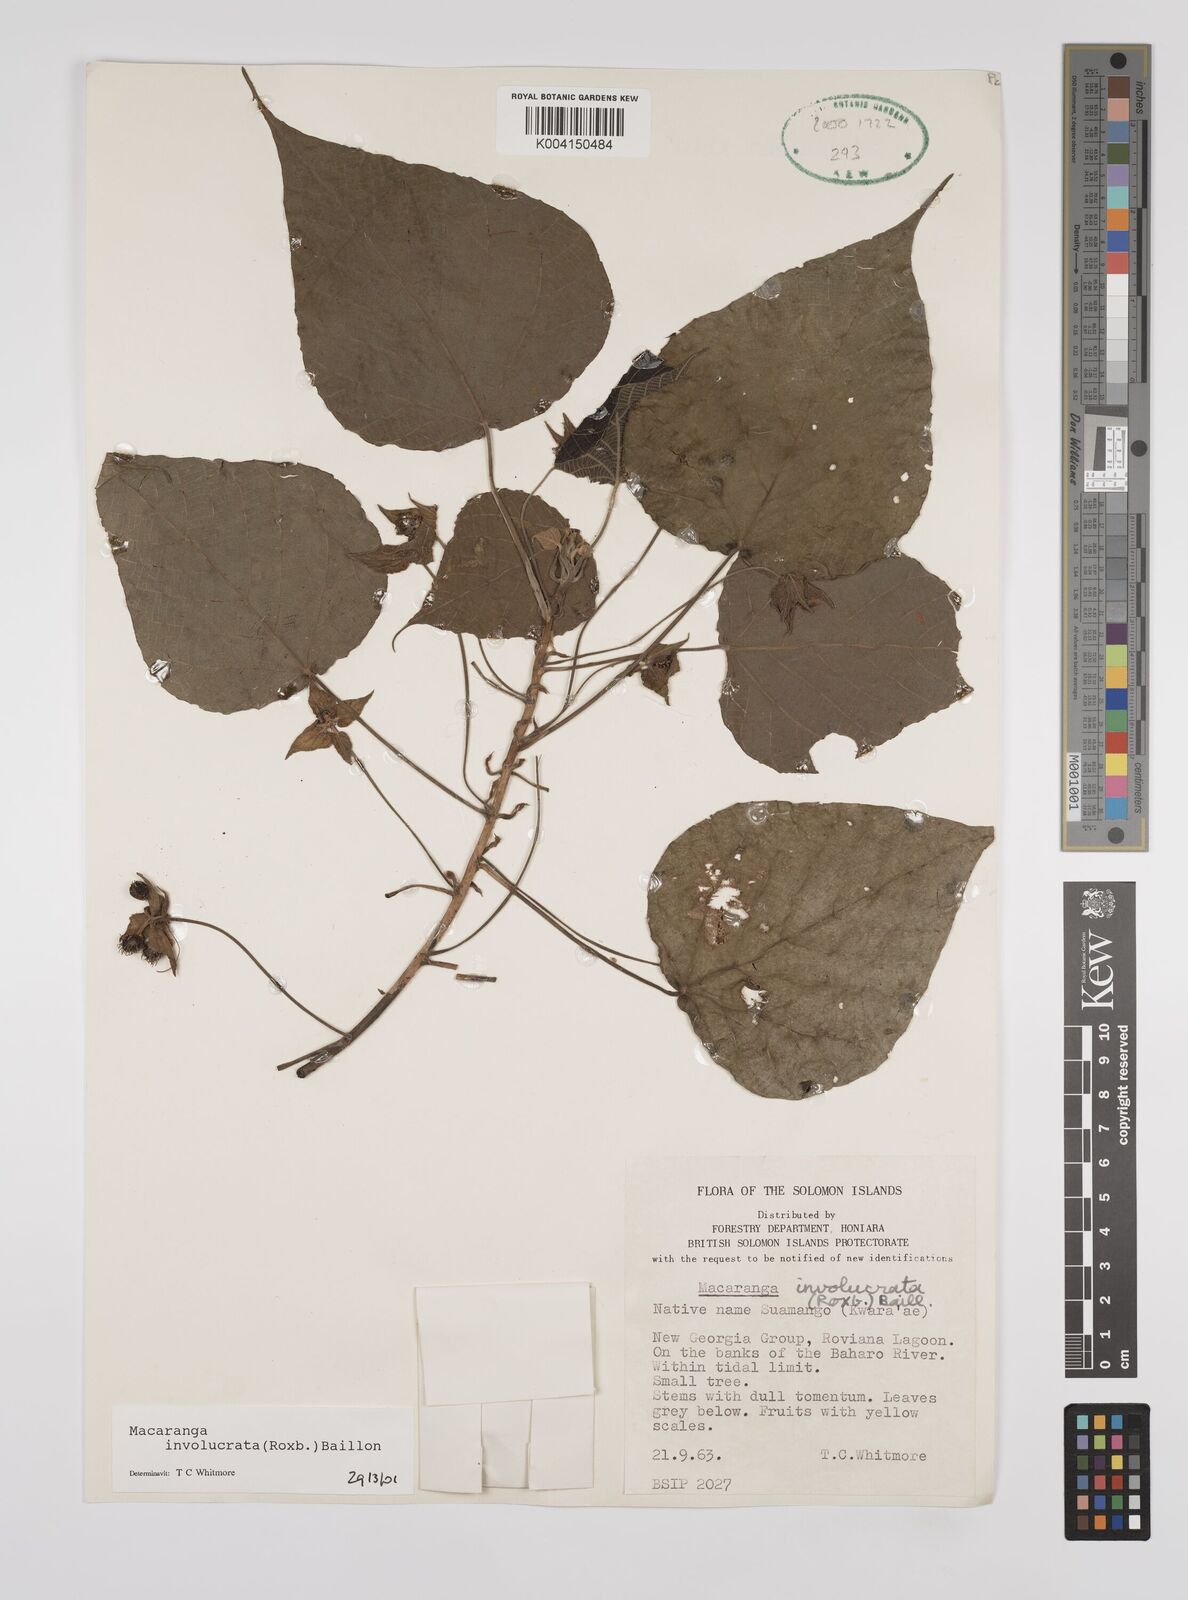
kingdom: Plantae
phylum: Tracheophyta
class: Magnoliopsida
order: Malpighiales
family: Euphorbiaceae
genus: Macaranga
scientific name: Macaranga involucrata
